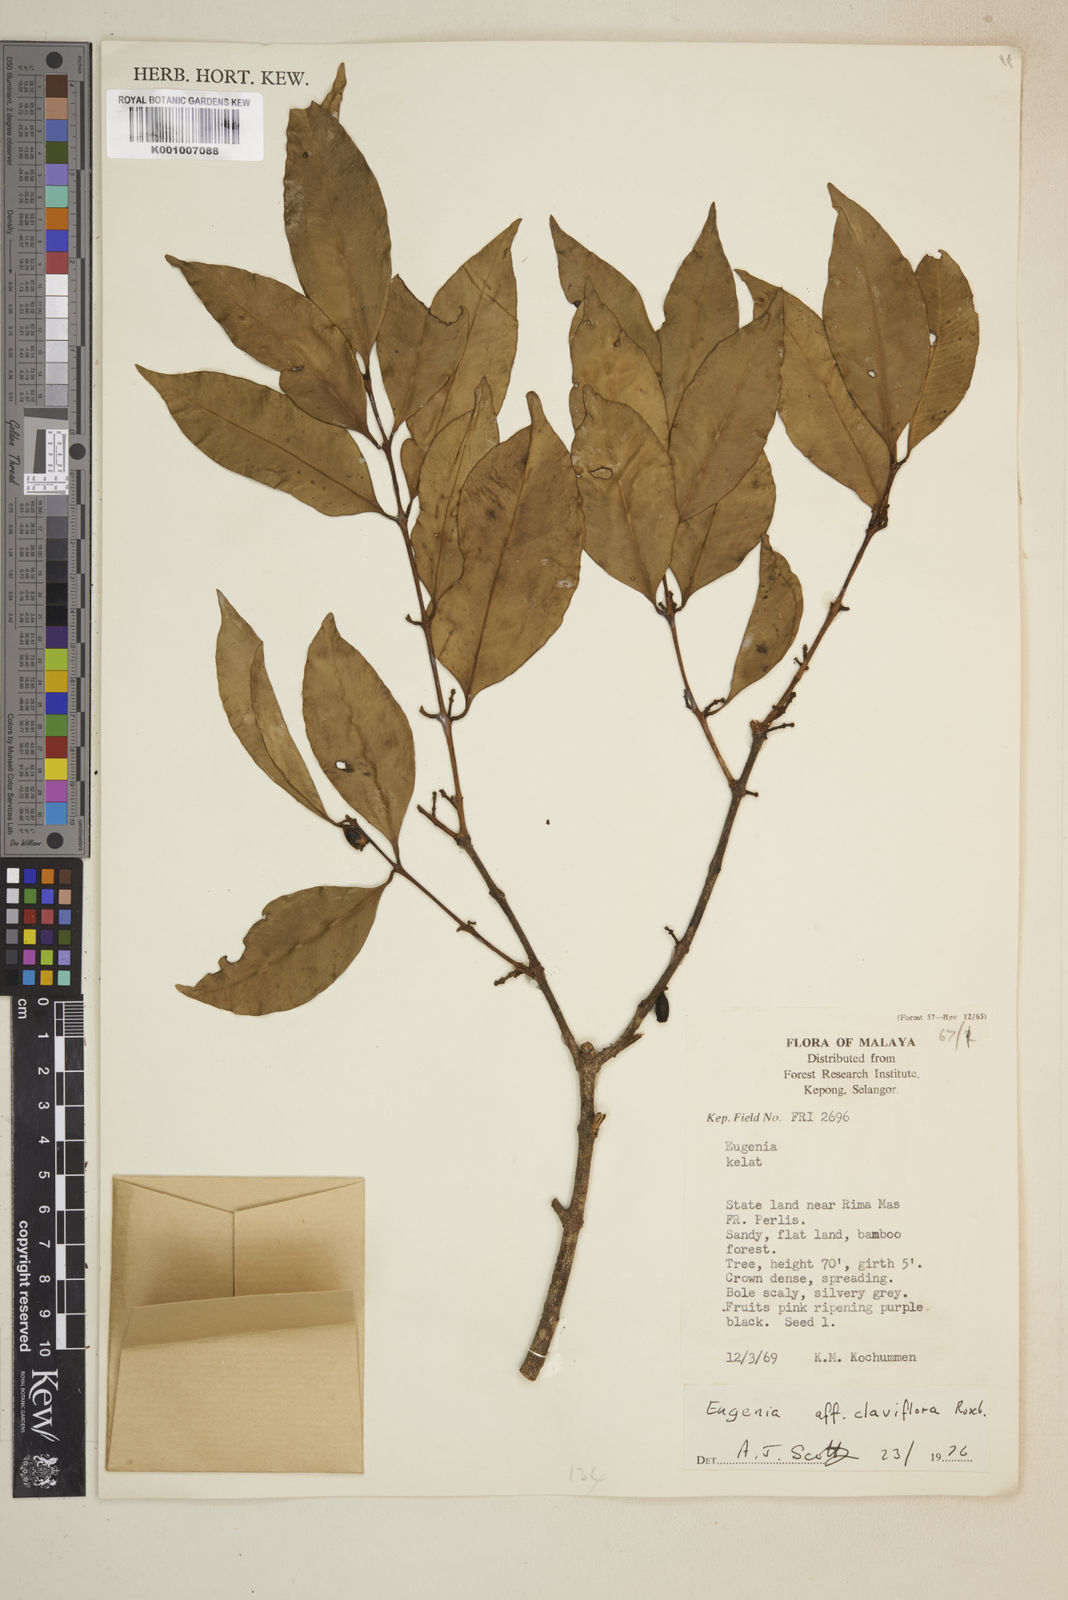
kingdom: Plantae
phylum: Tracheophyta
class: Magnoliopsida
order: Myrtales
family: Myrtaceae
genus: Syzygium
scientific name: Syzygium claviflorum
